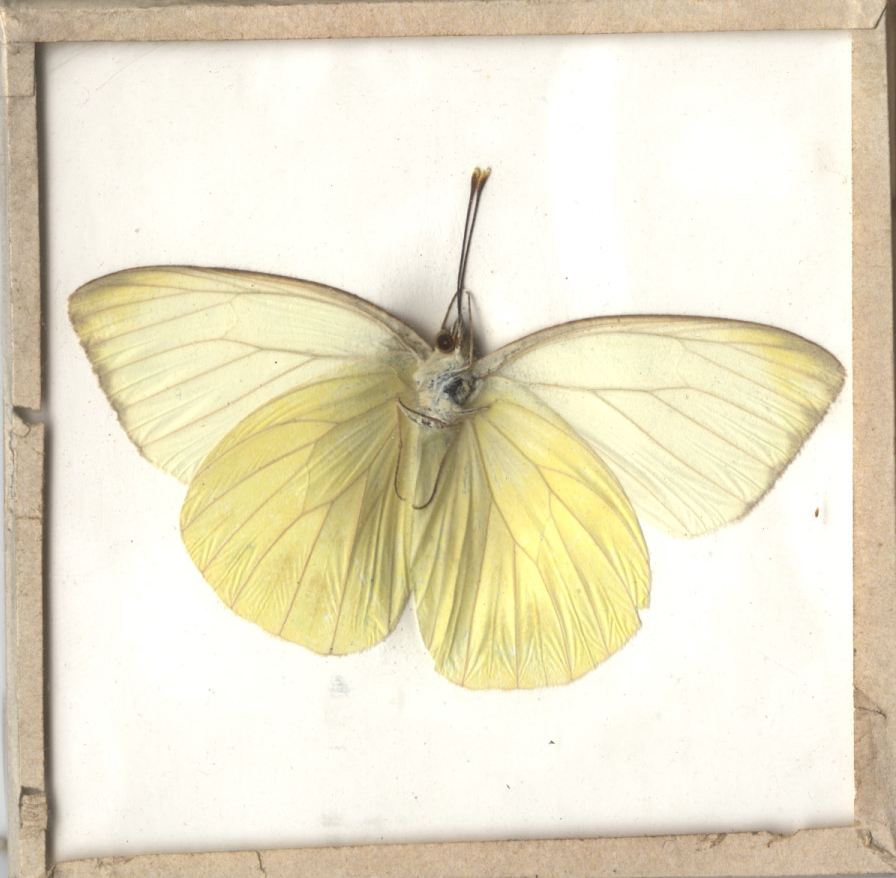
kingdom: Animalia
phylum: Arthropoda
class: Insecta
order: Lepidoptera
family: Pieridae
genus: Ascia
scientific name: Ascia monuste
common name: Great Southern White
